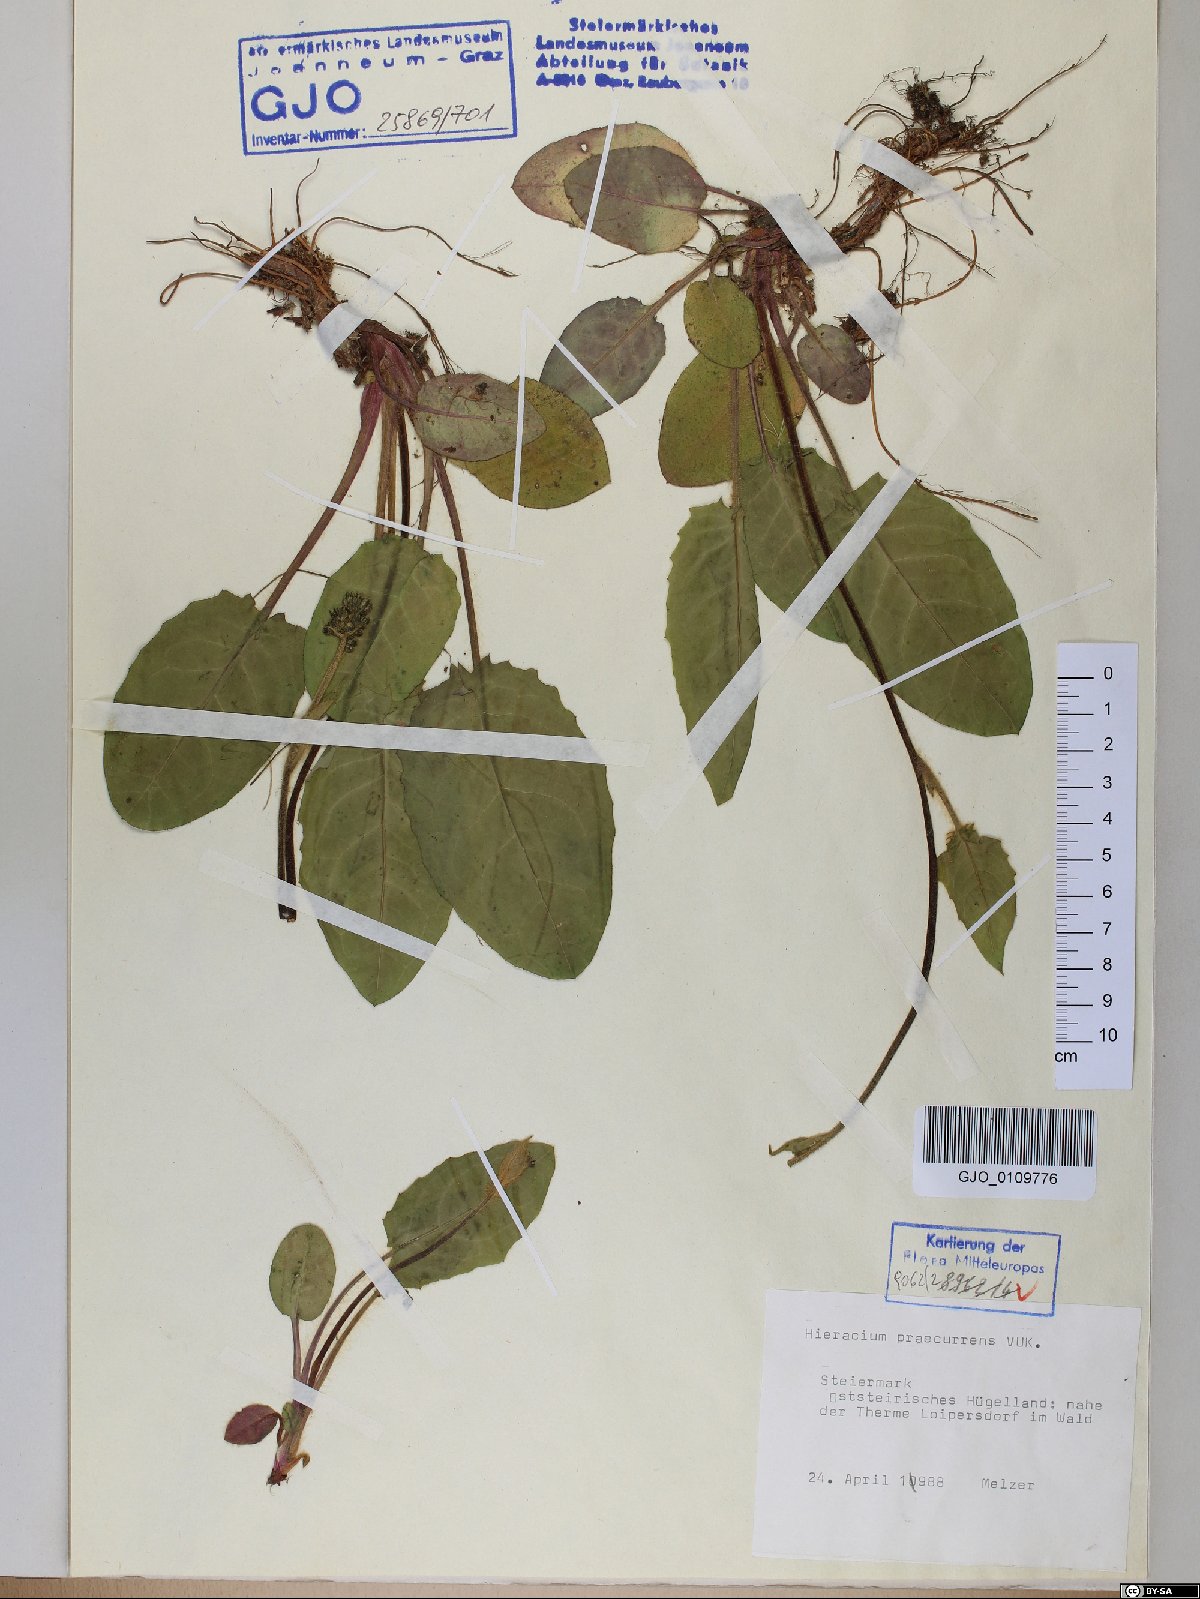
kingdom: Plantae
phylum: Tracheophyta
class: Magnoliopsida
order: Asterales
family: Asteraceae
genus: Hieracium
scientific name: Hieracium rotundatum
